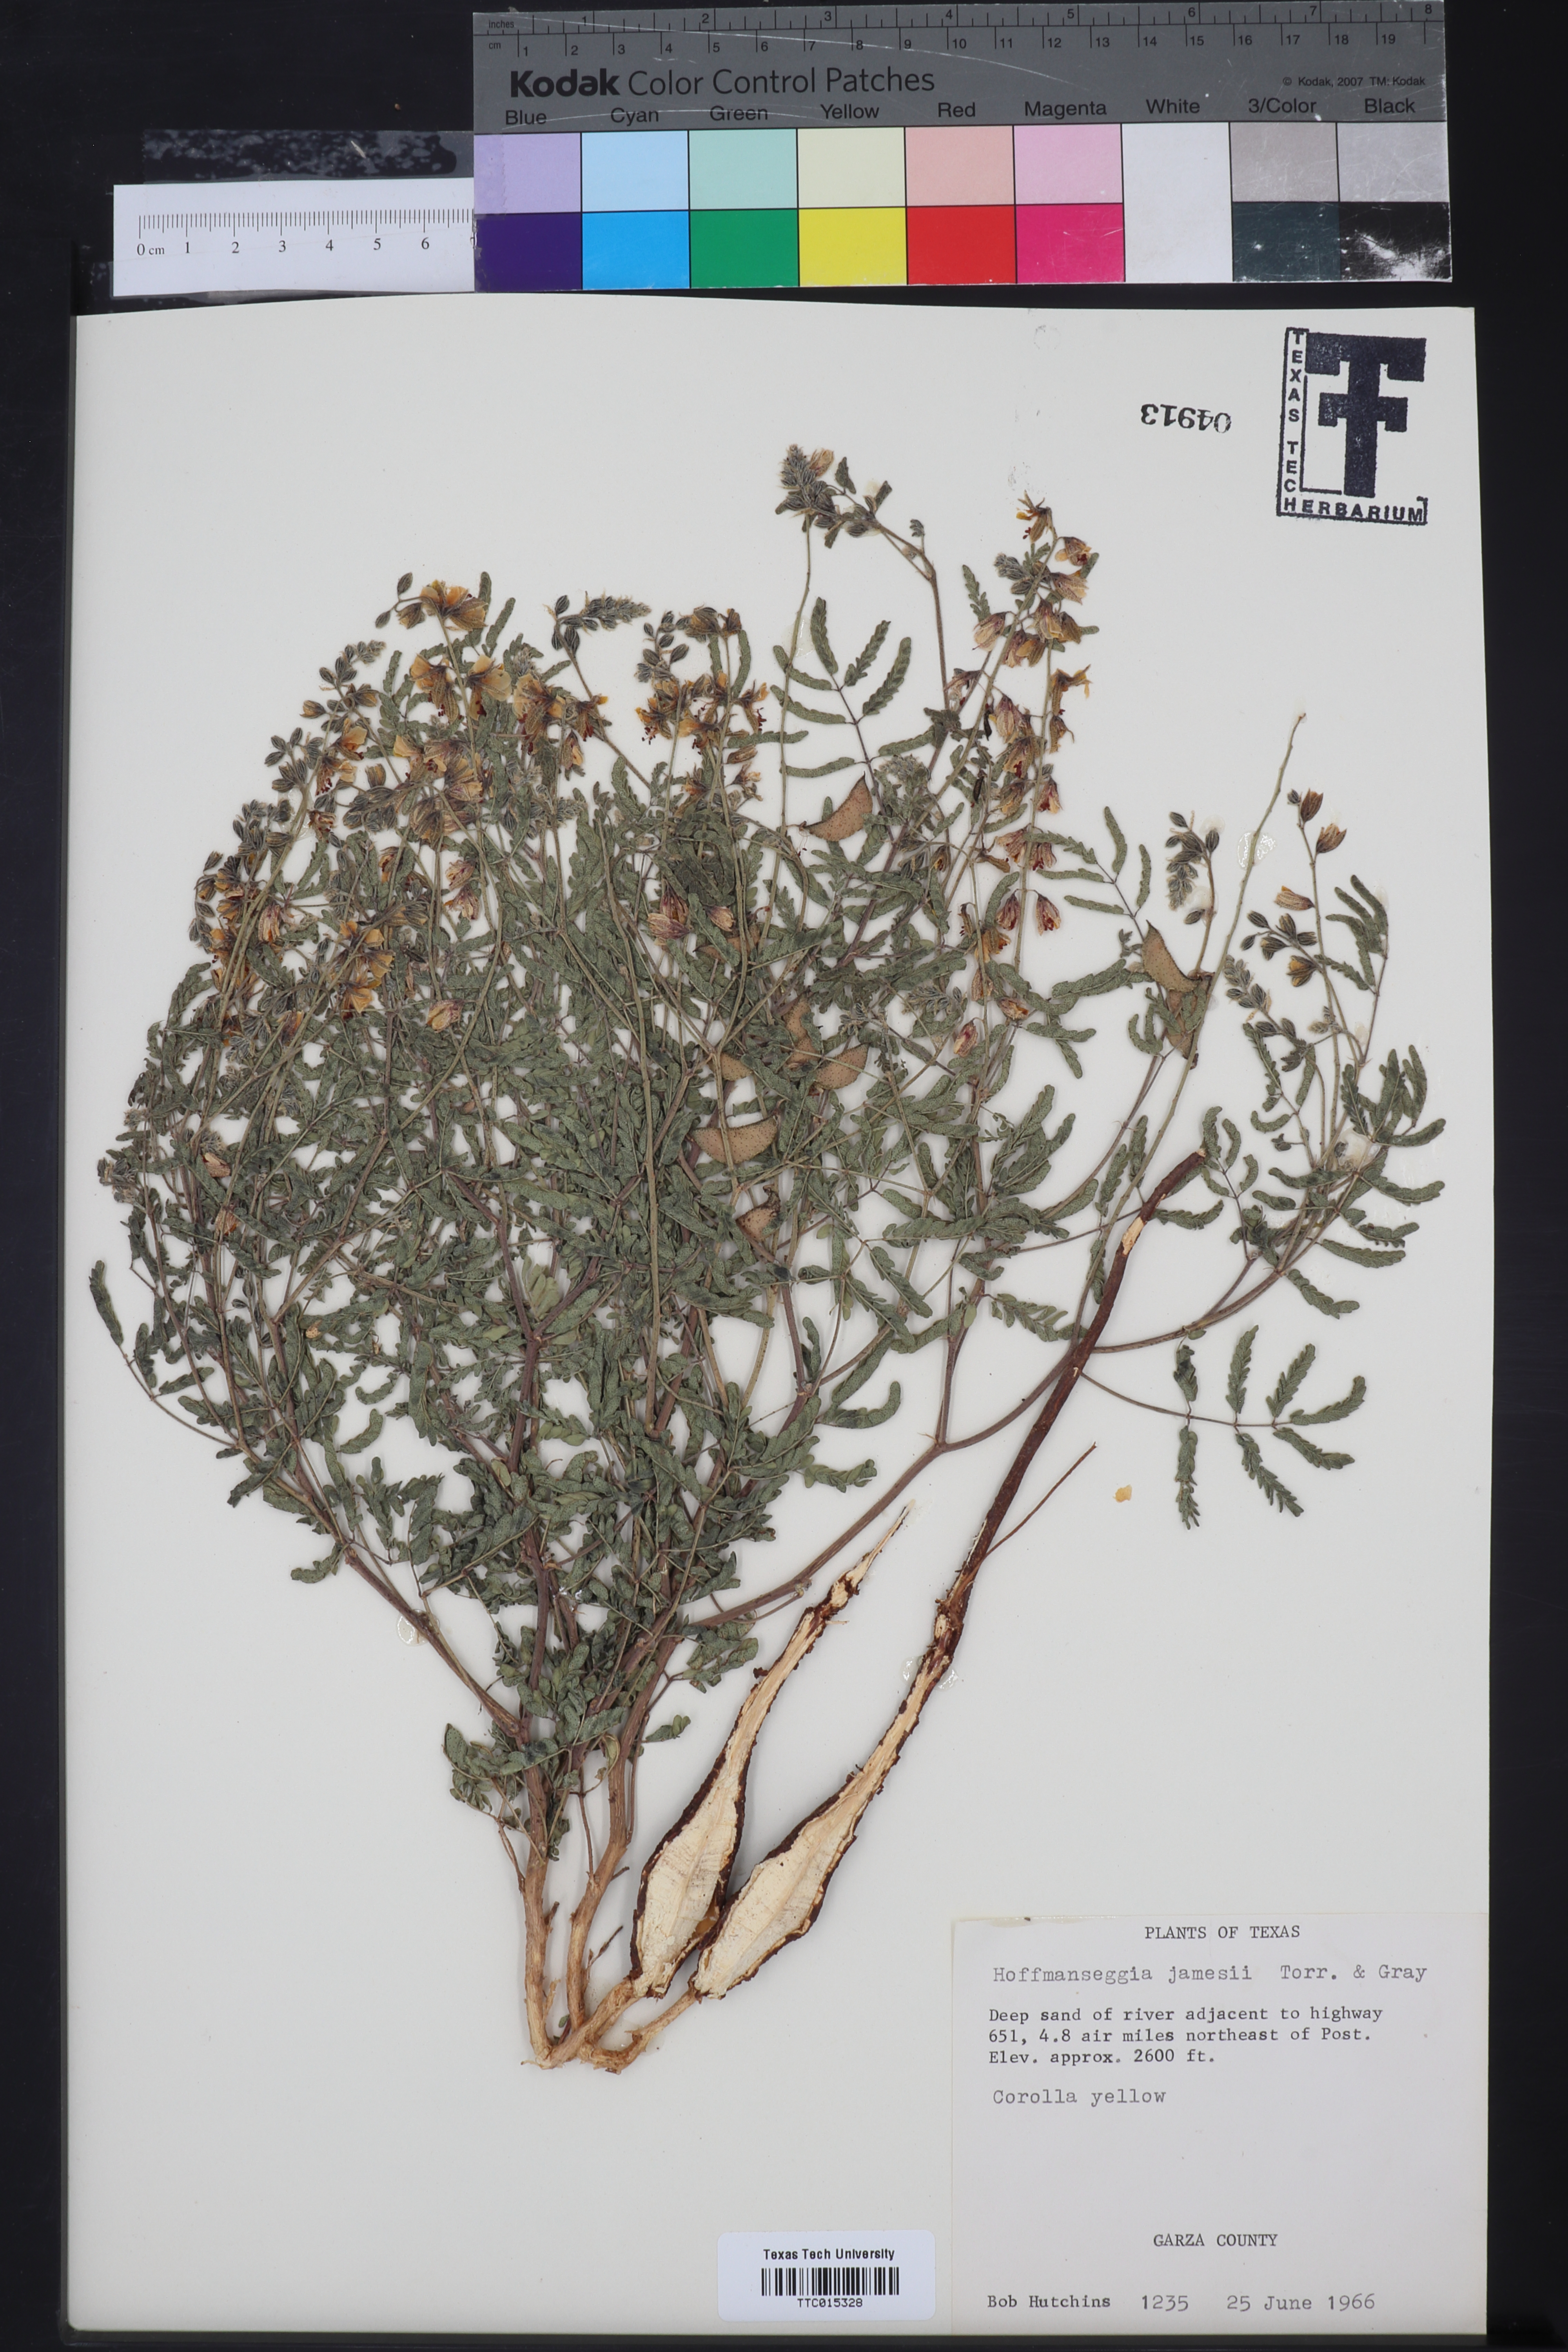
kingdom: Plantae
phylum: Tracheophyta
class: Magnoliopsida
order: Fabales
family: Fabaceae
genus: Pomaria
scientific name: Pomaria jamesii
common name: James' caesalpinia
